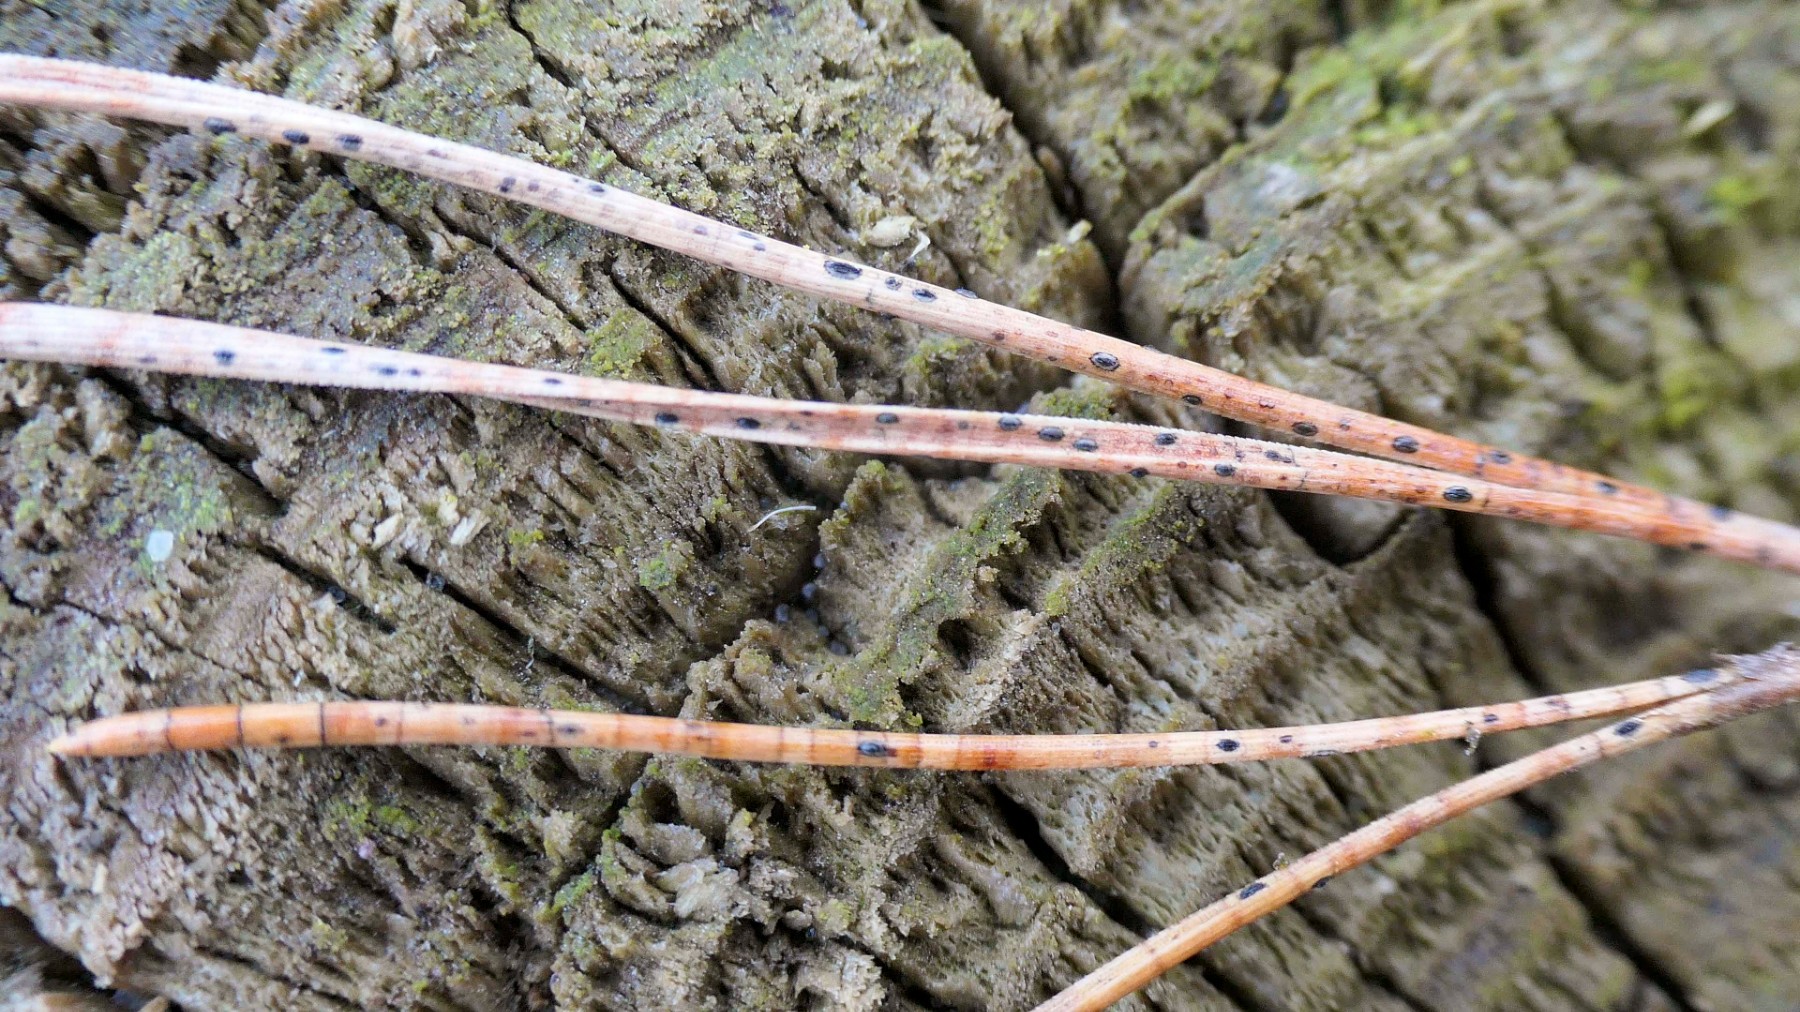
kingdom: Fungi
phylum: Ascomycota
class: Leotiomycetes
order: Rhytismatales
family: Rhytismataceae
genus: Lophodermium
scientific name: Lophodermium pinastri
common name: fyrre-fureplet
